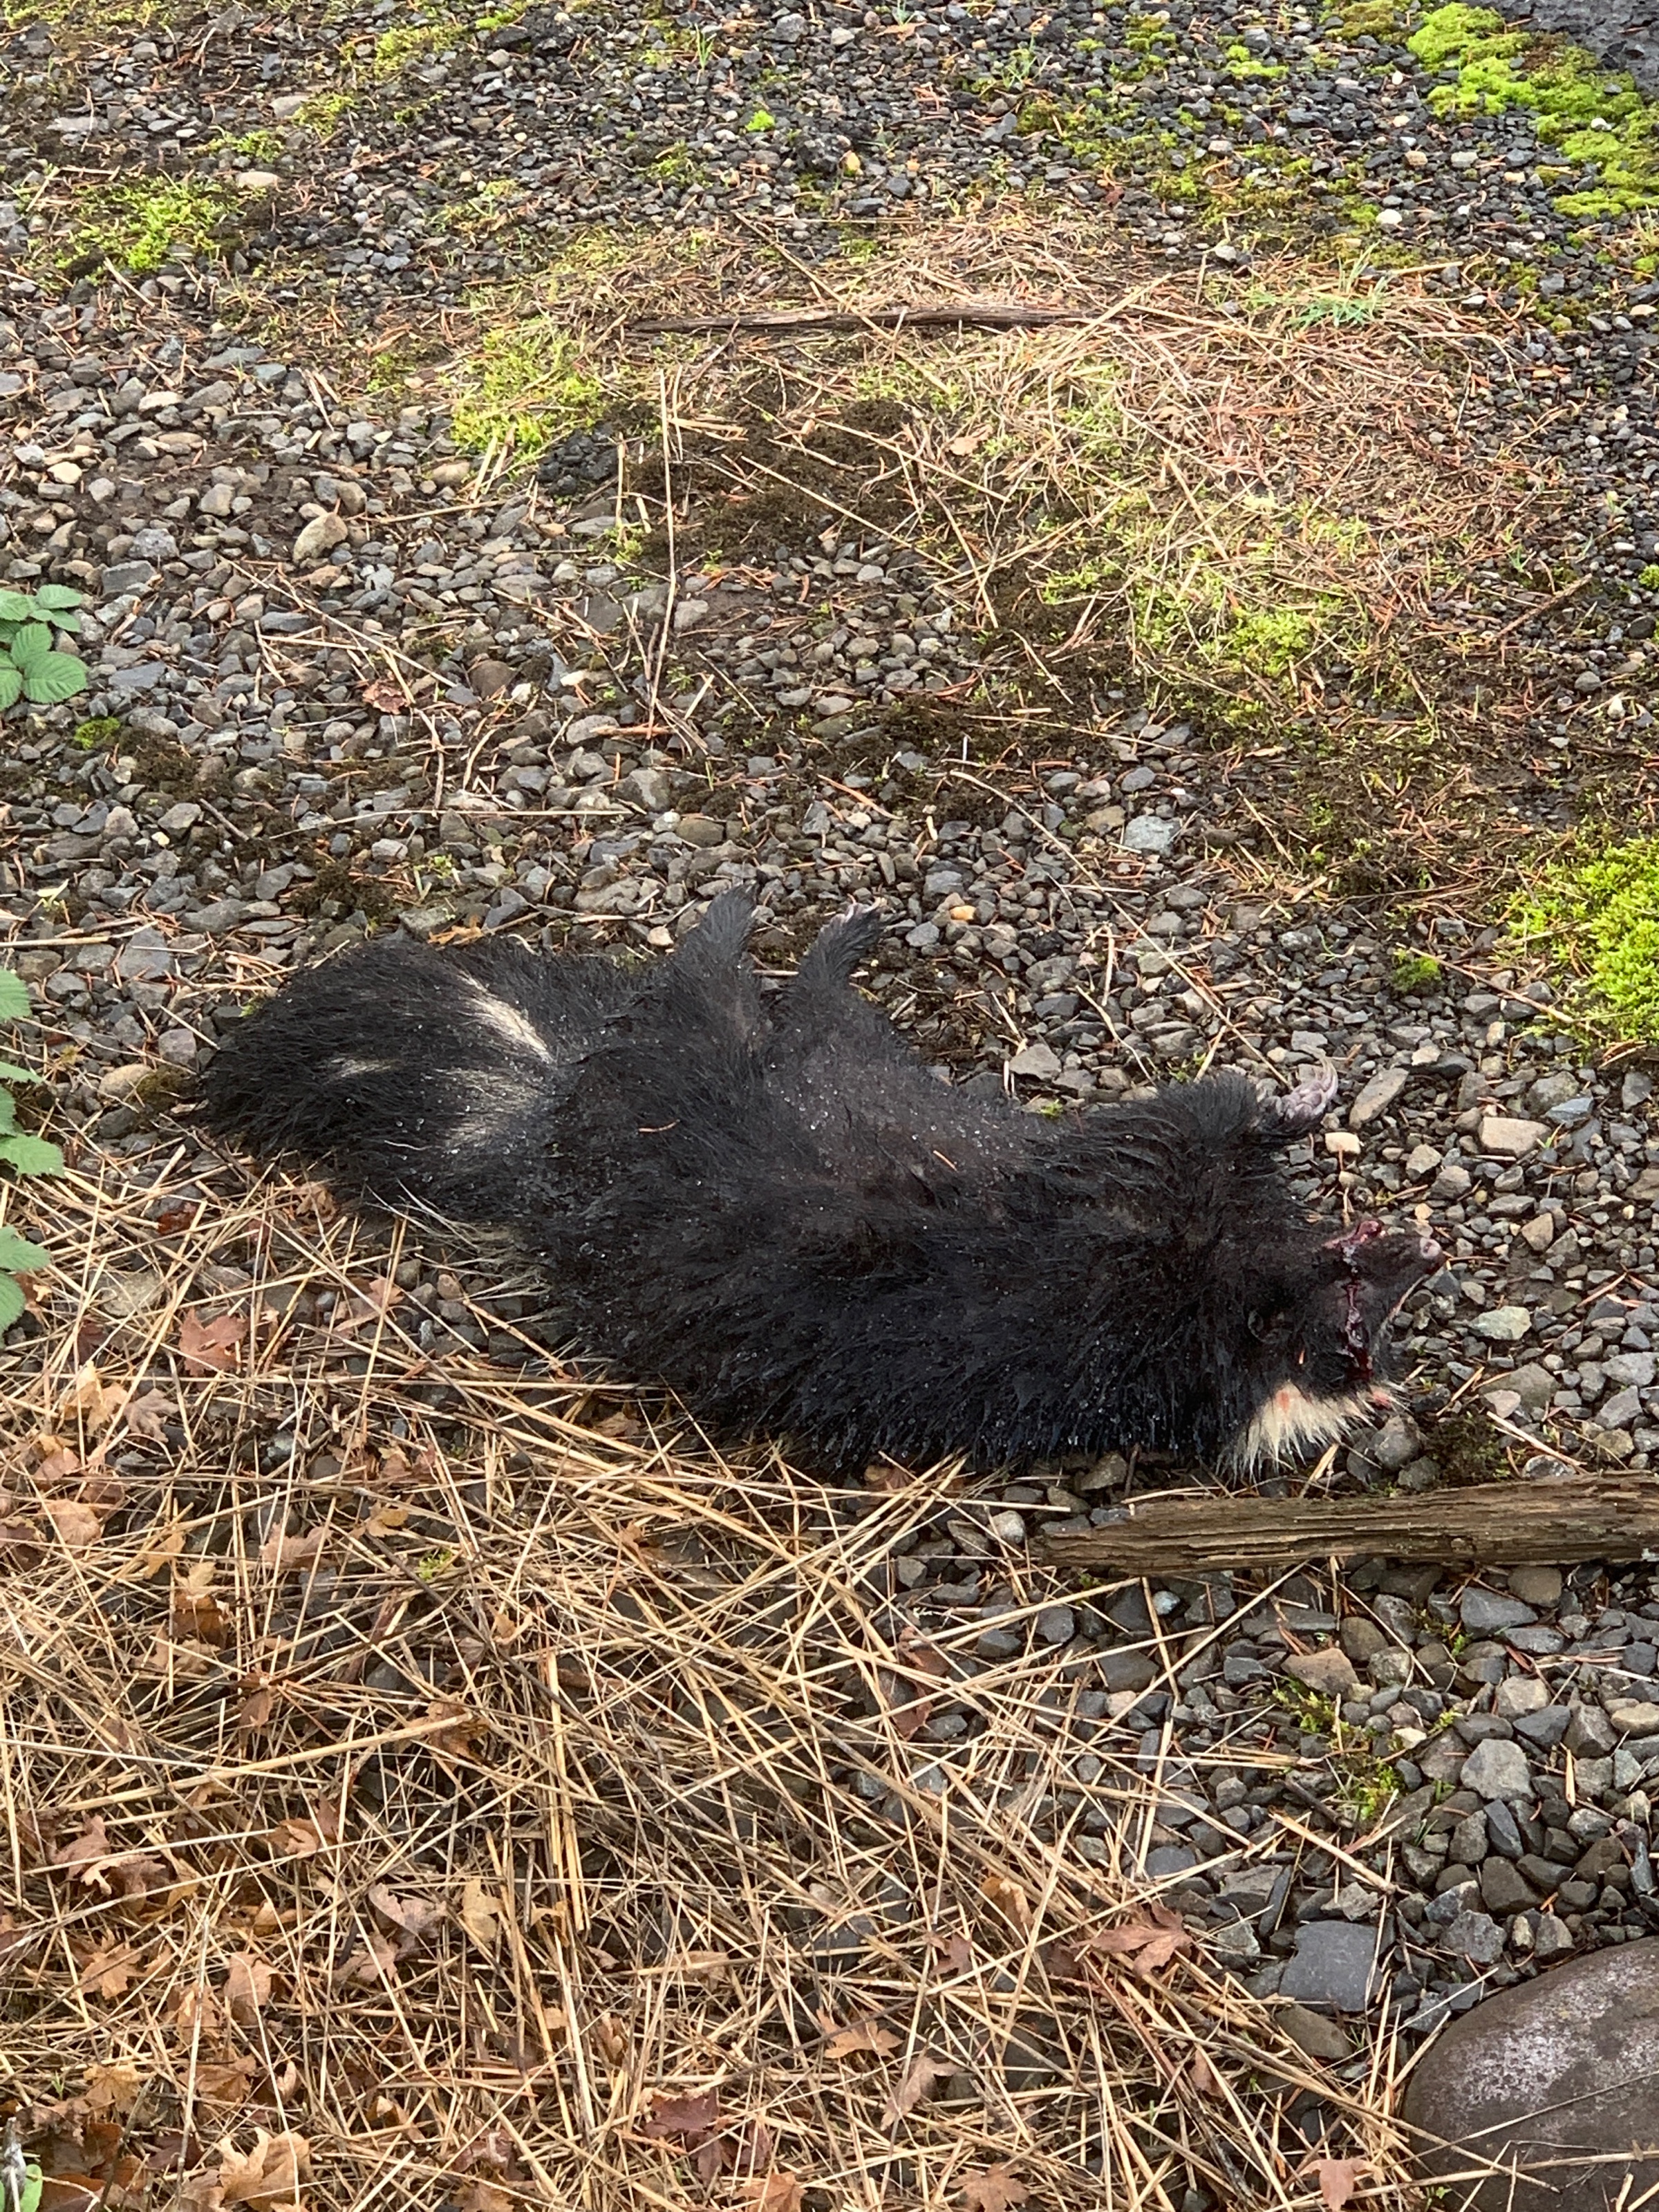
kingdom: Animalia
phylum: Chordata
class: Mammalia
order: Carnivora
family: Mephitidae
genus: Mephitis
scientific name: Mephitis mephitis
